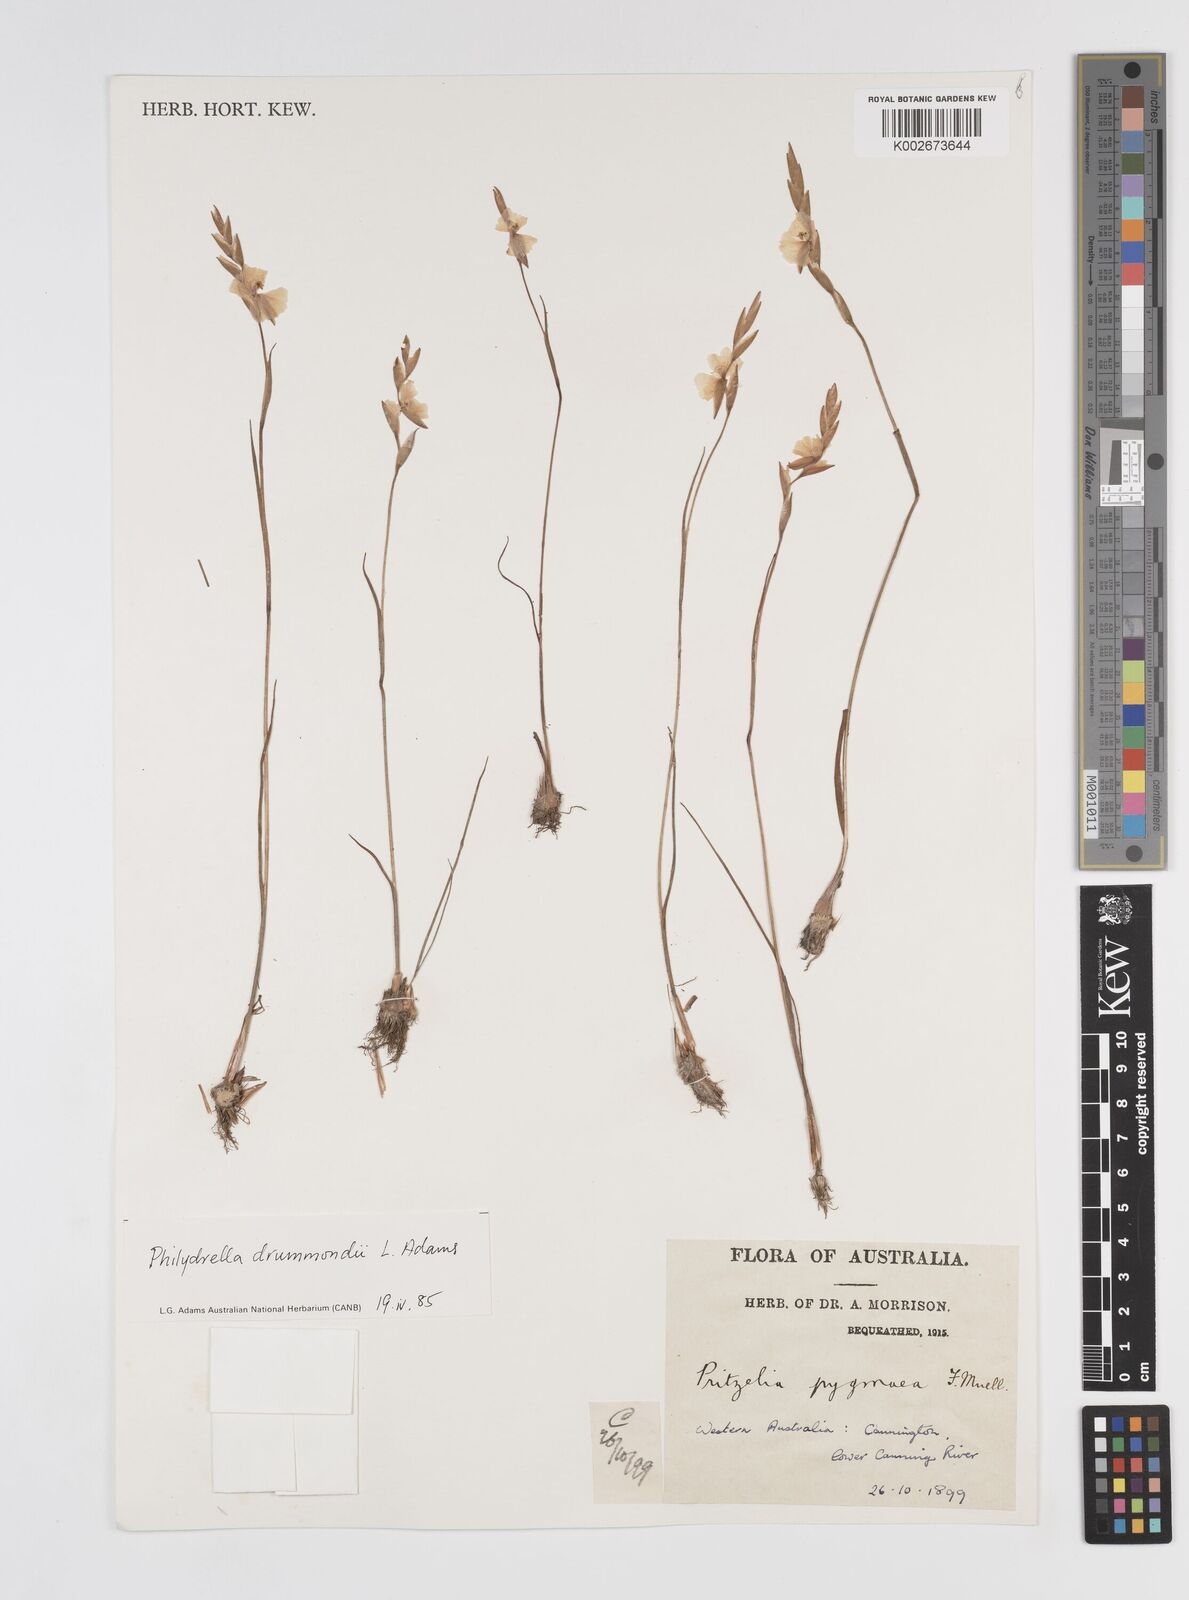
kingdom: Plantae
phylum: Tracheophyta
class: Liliopsida
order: Commelinales
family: Philydraceae
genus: Philydrella
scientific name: Philydrella drummondii
